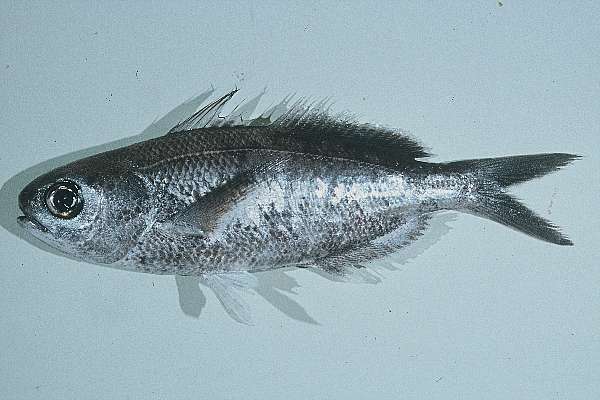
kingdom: Animalia
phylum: Chordata
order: Perciformes
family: Nomeidae
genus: Cubiceps
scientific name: Cubiceps whiteleggii
